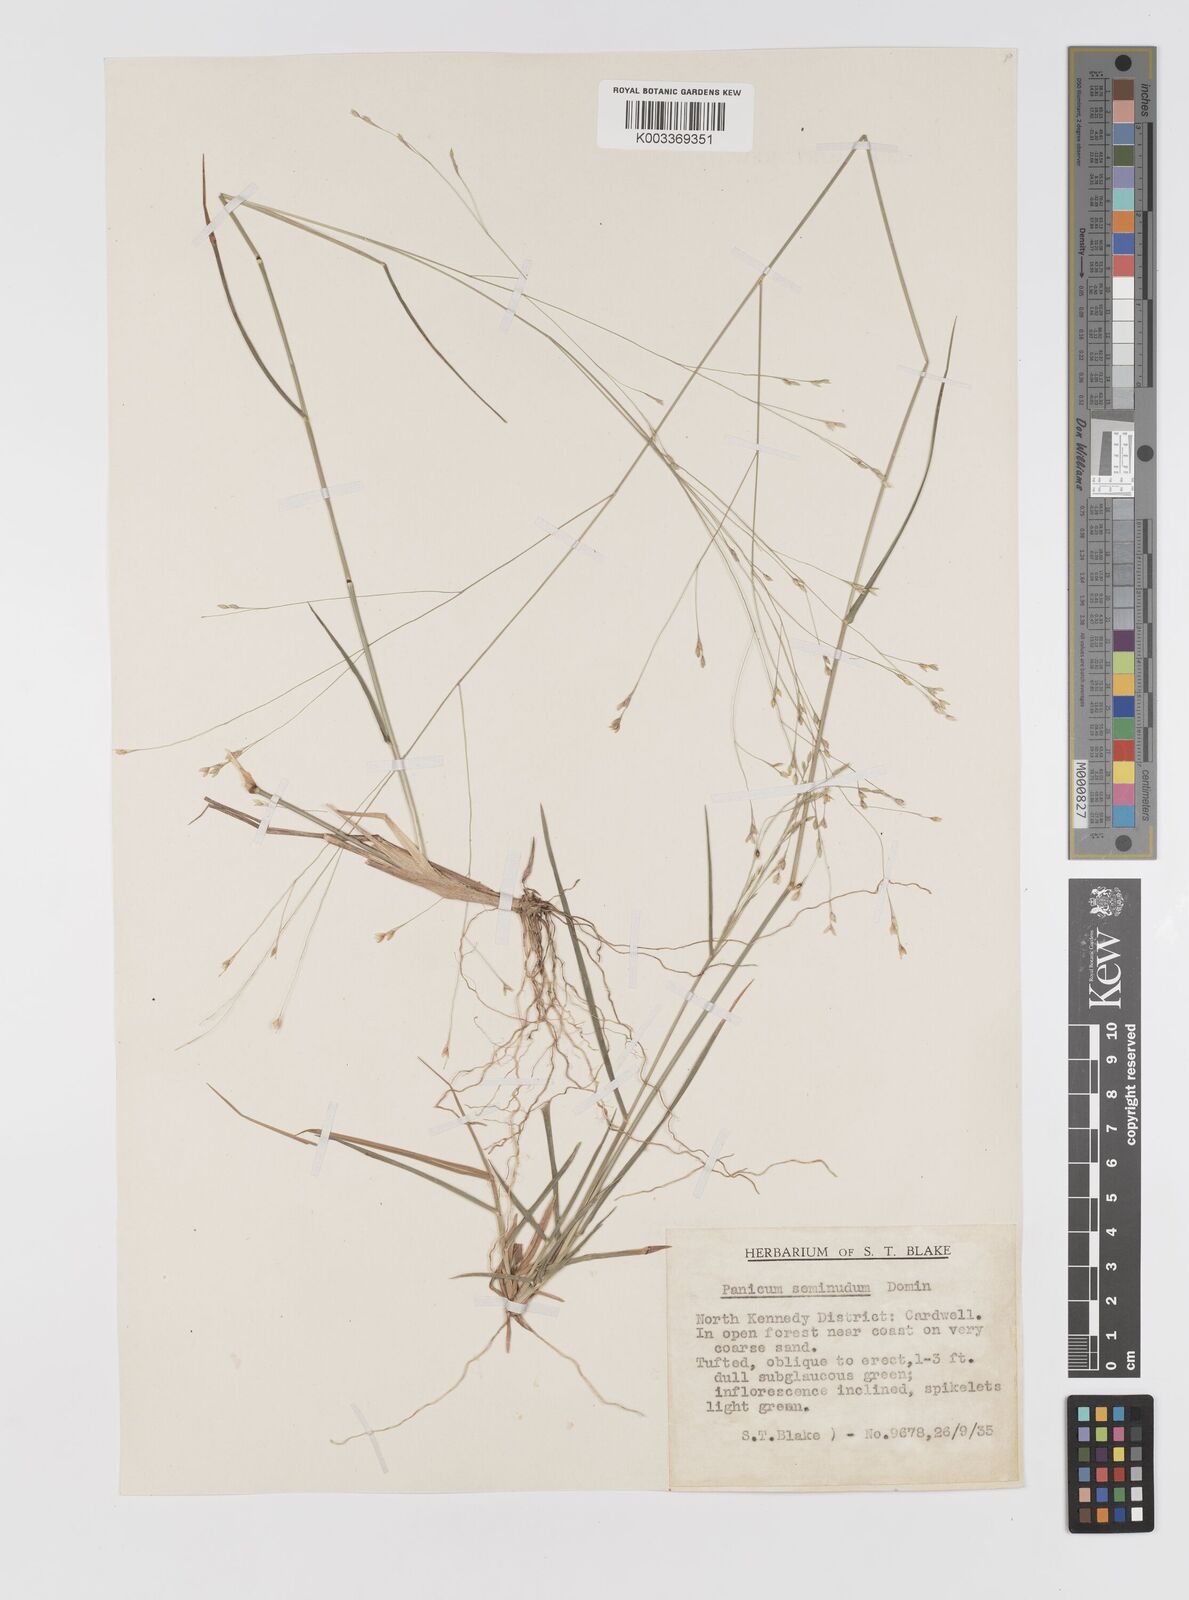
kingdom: Plantae
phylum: Tracheophyta
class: Liliopsida
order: Poales
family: Poaceae
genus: Panicum
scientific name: Panicum seminudum
